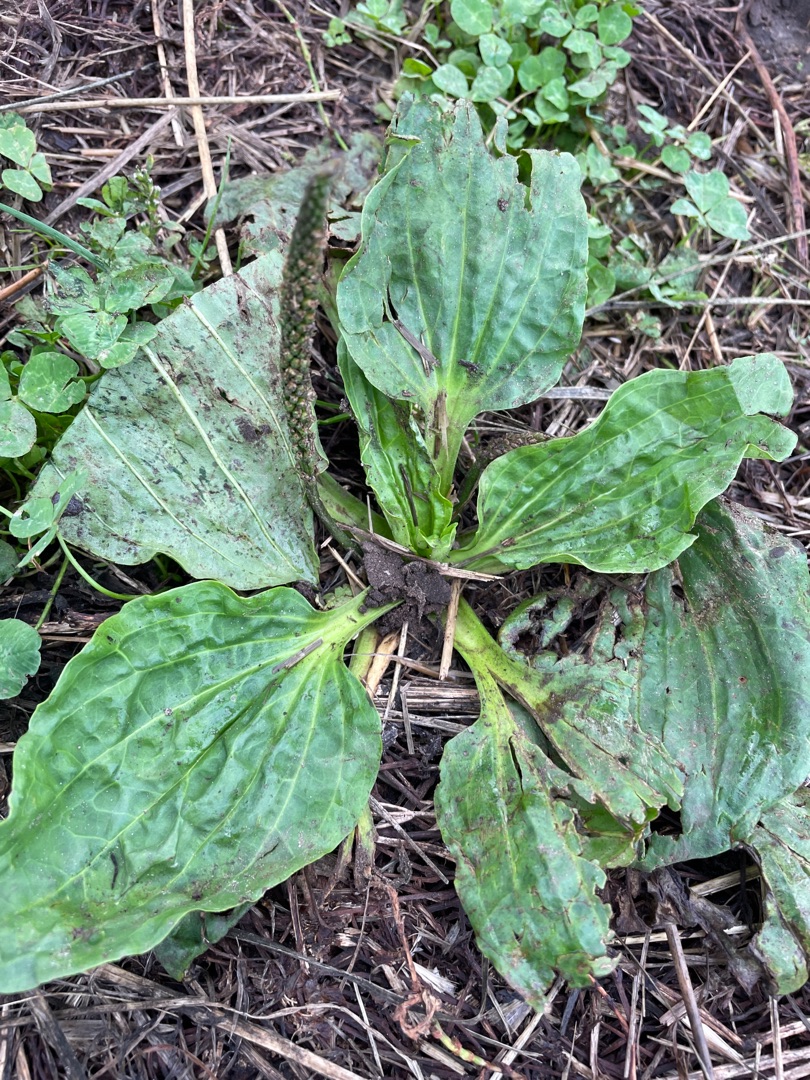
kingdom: Plantae
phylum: Tracheophyta
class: Magnoliopsida
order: Lamiales
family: Plantaginaceae
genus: Plantago
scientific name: Plantago major
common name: Glat vejbred
